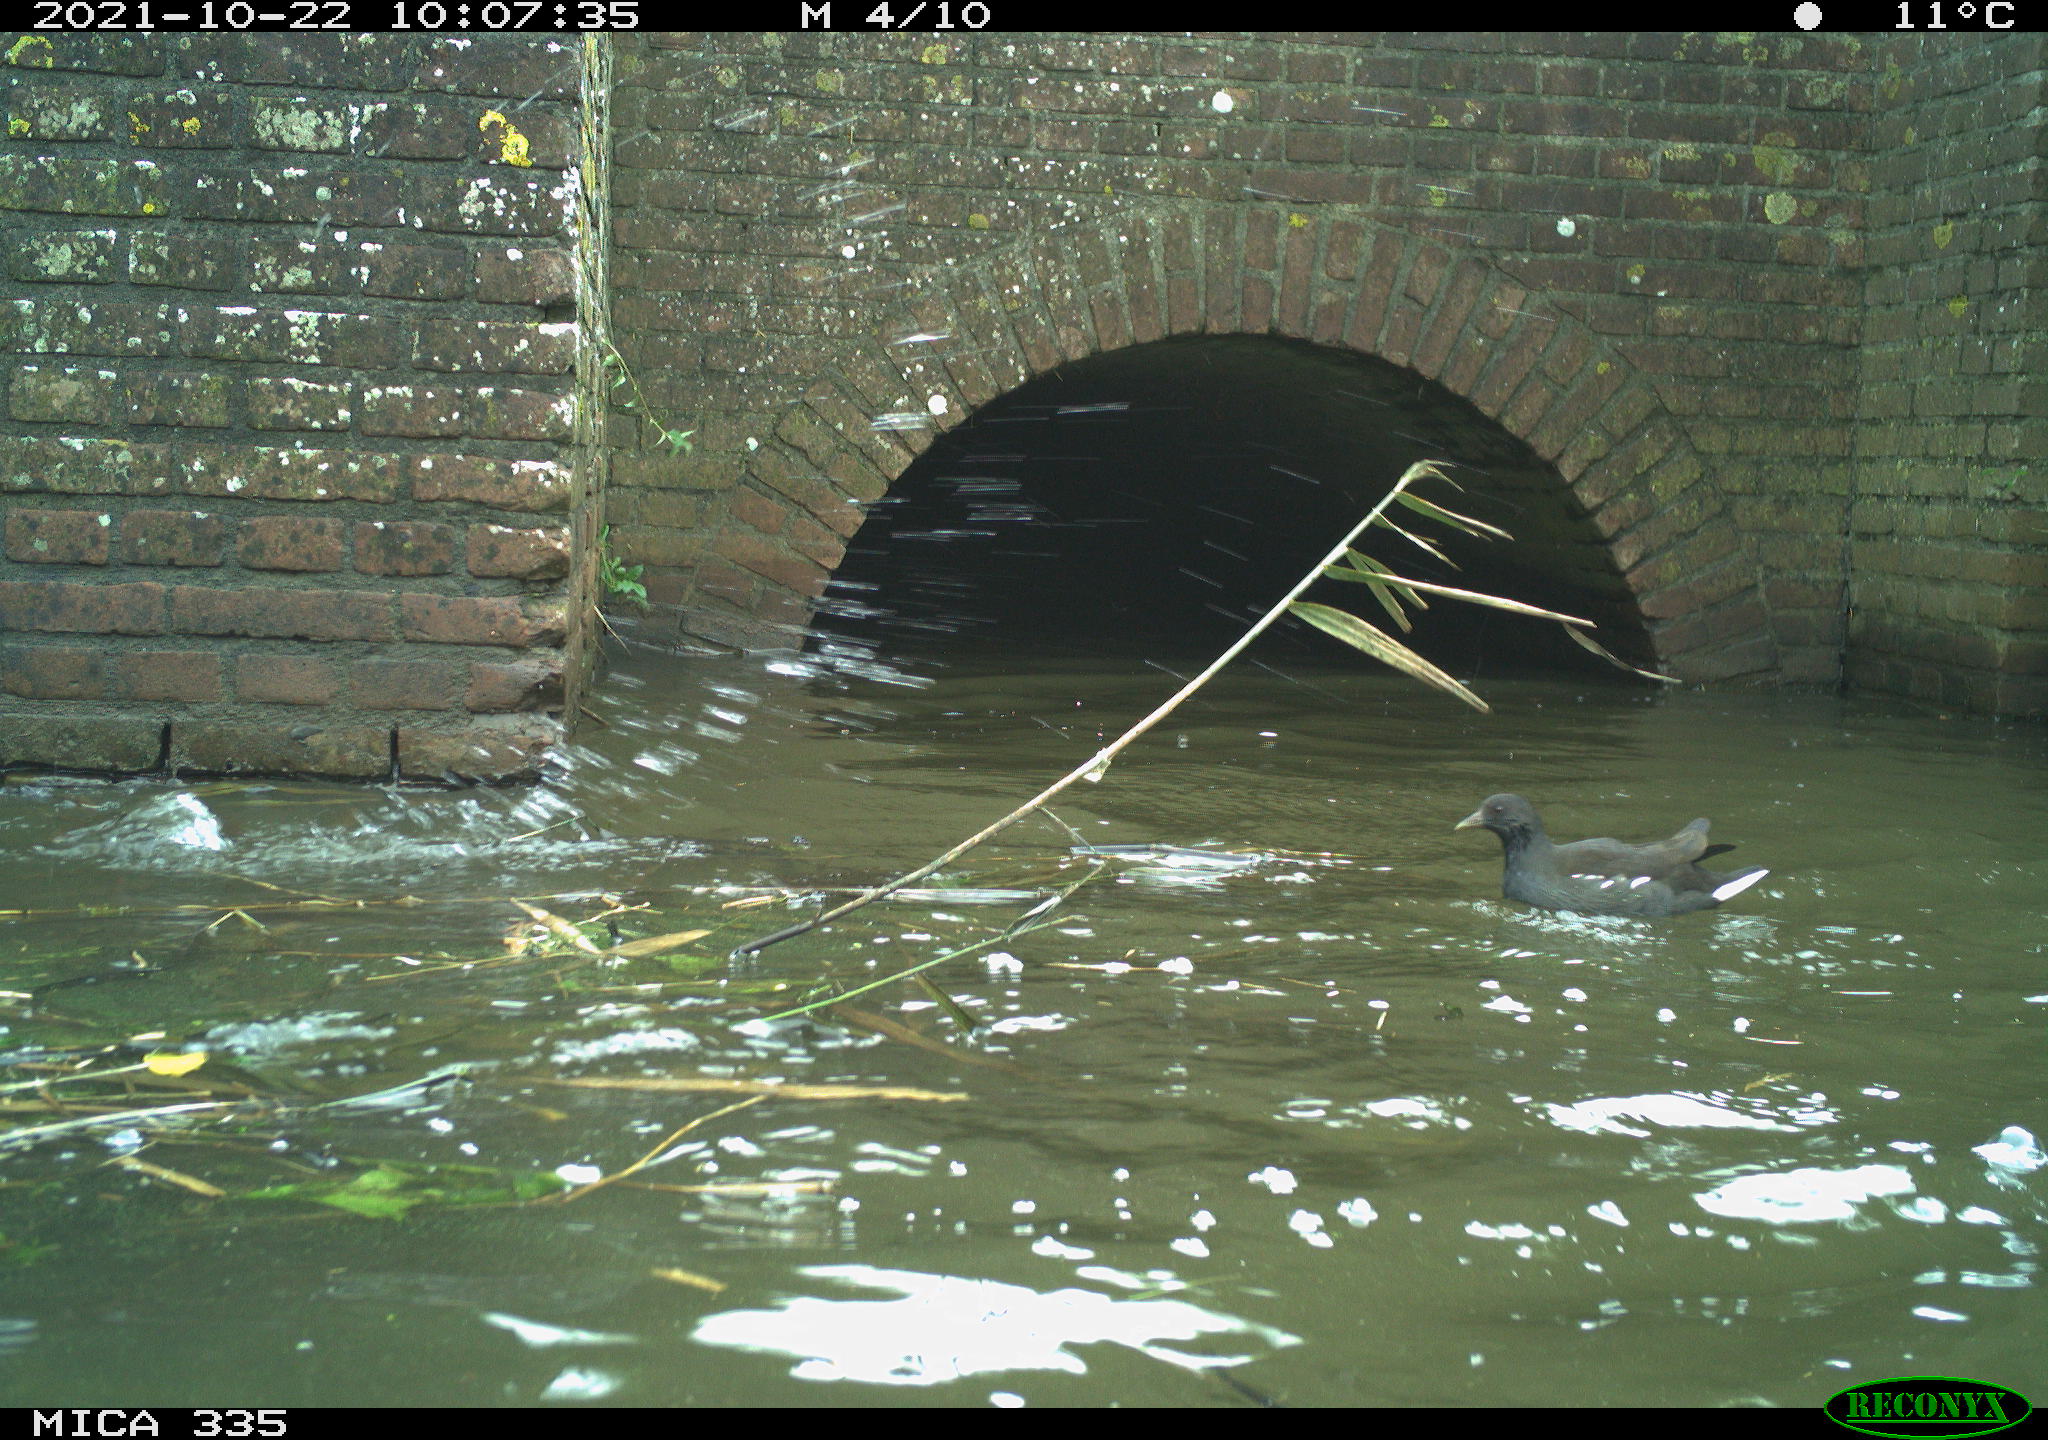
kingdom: Animalia
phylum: Chordata
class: Aves
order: Gruiformes
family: Rallidae
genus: Fulica
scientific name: Fulica atra
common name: Eurasian coot
